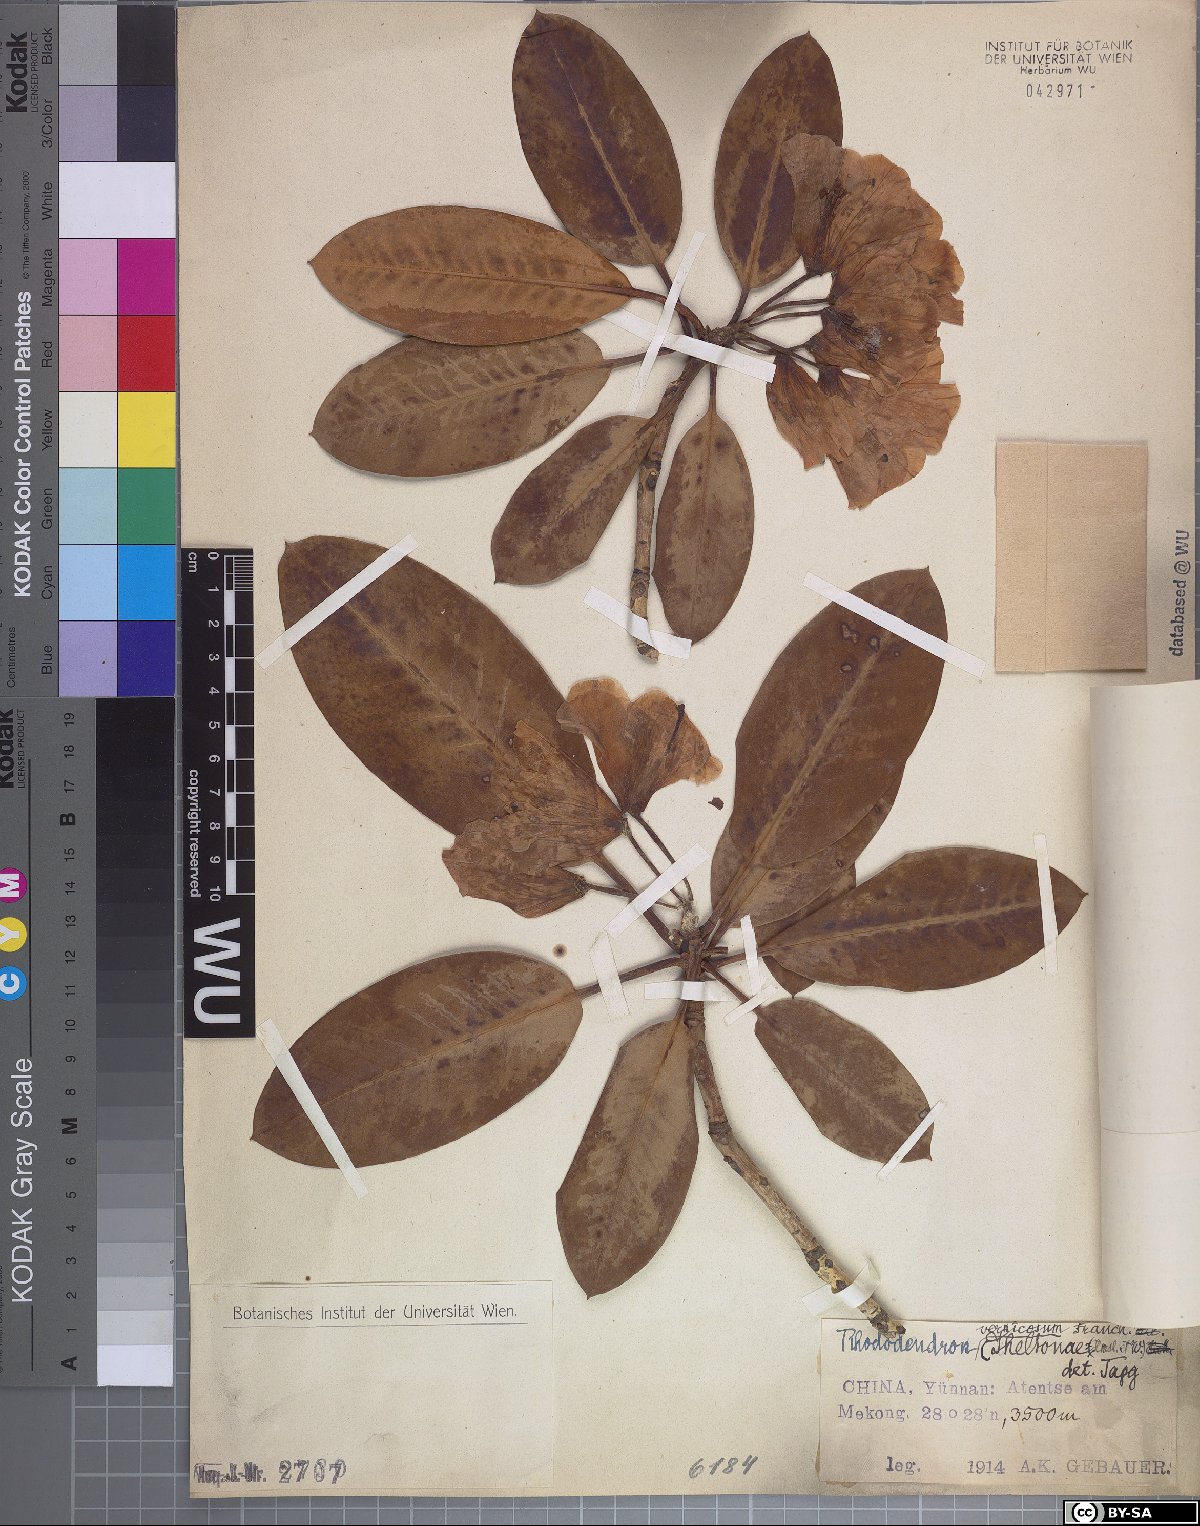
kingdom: Plantae
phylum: Tracheophyta
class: Magnoliopsida
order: Ericales
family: Ericaceae
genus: Rhododendron
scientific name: Rhododendron vernicosum
